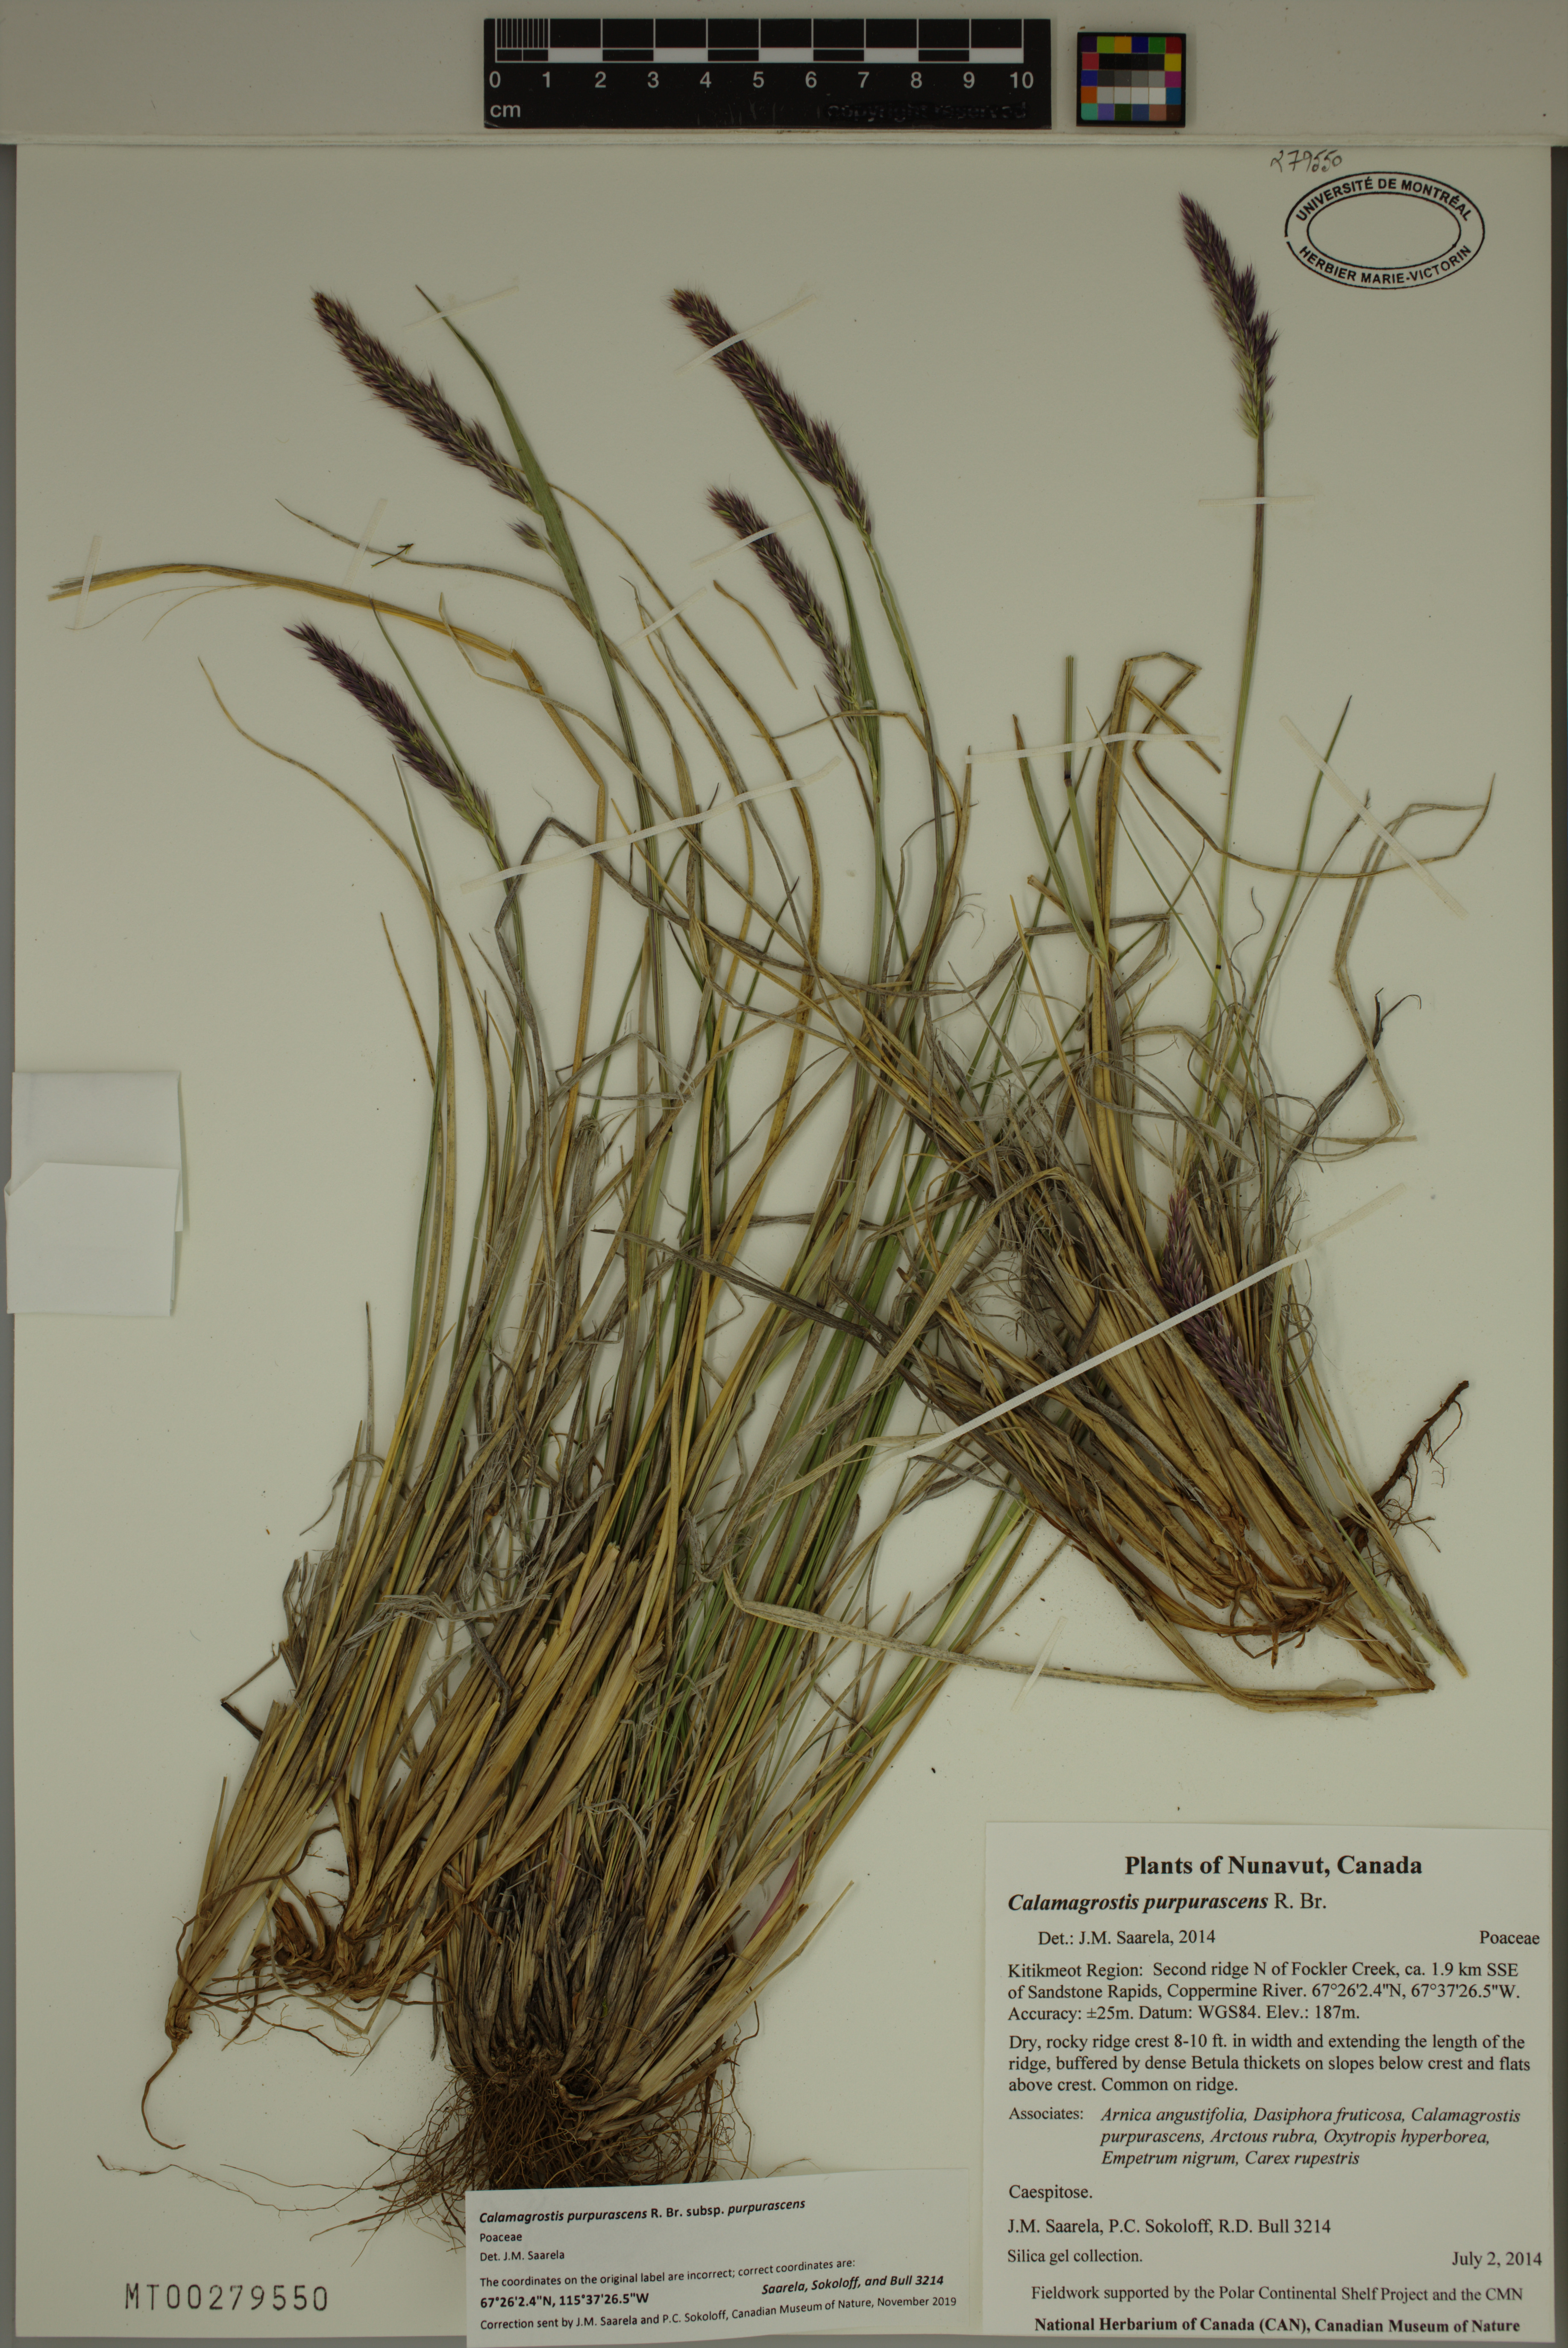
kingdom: Plantae
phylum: Tracheophyta
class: Liliopsida
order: Poales
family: Poaceae
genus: Calamagrostis
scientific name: Calamagrostis purpurascens
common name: Purple reedgrass
